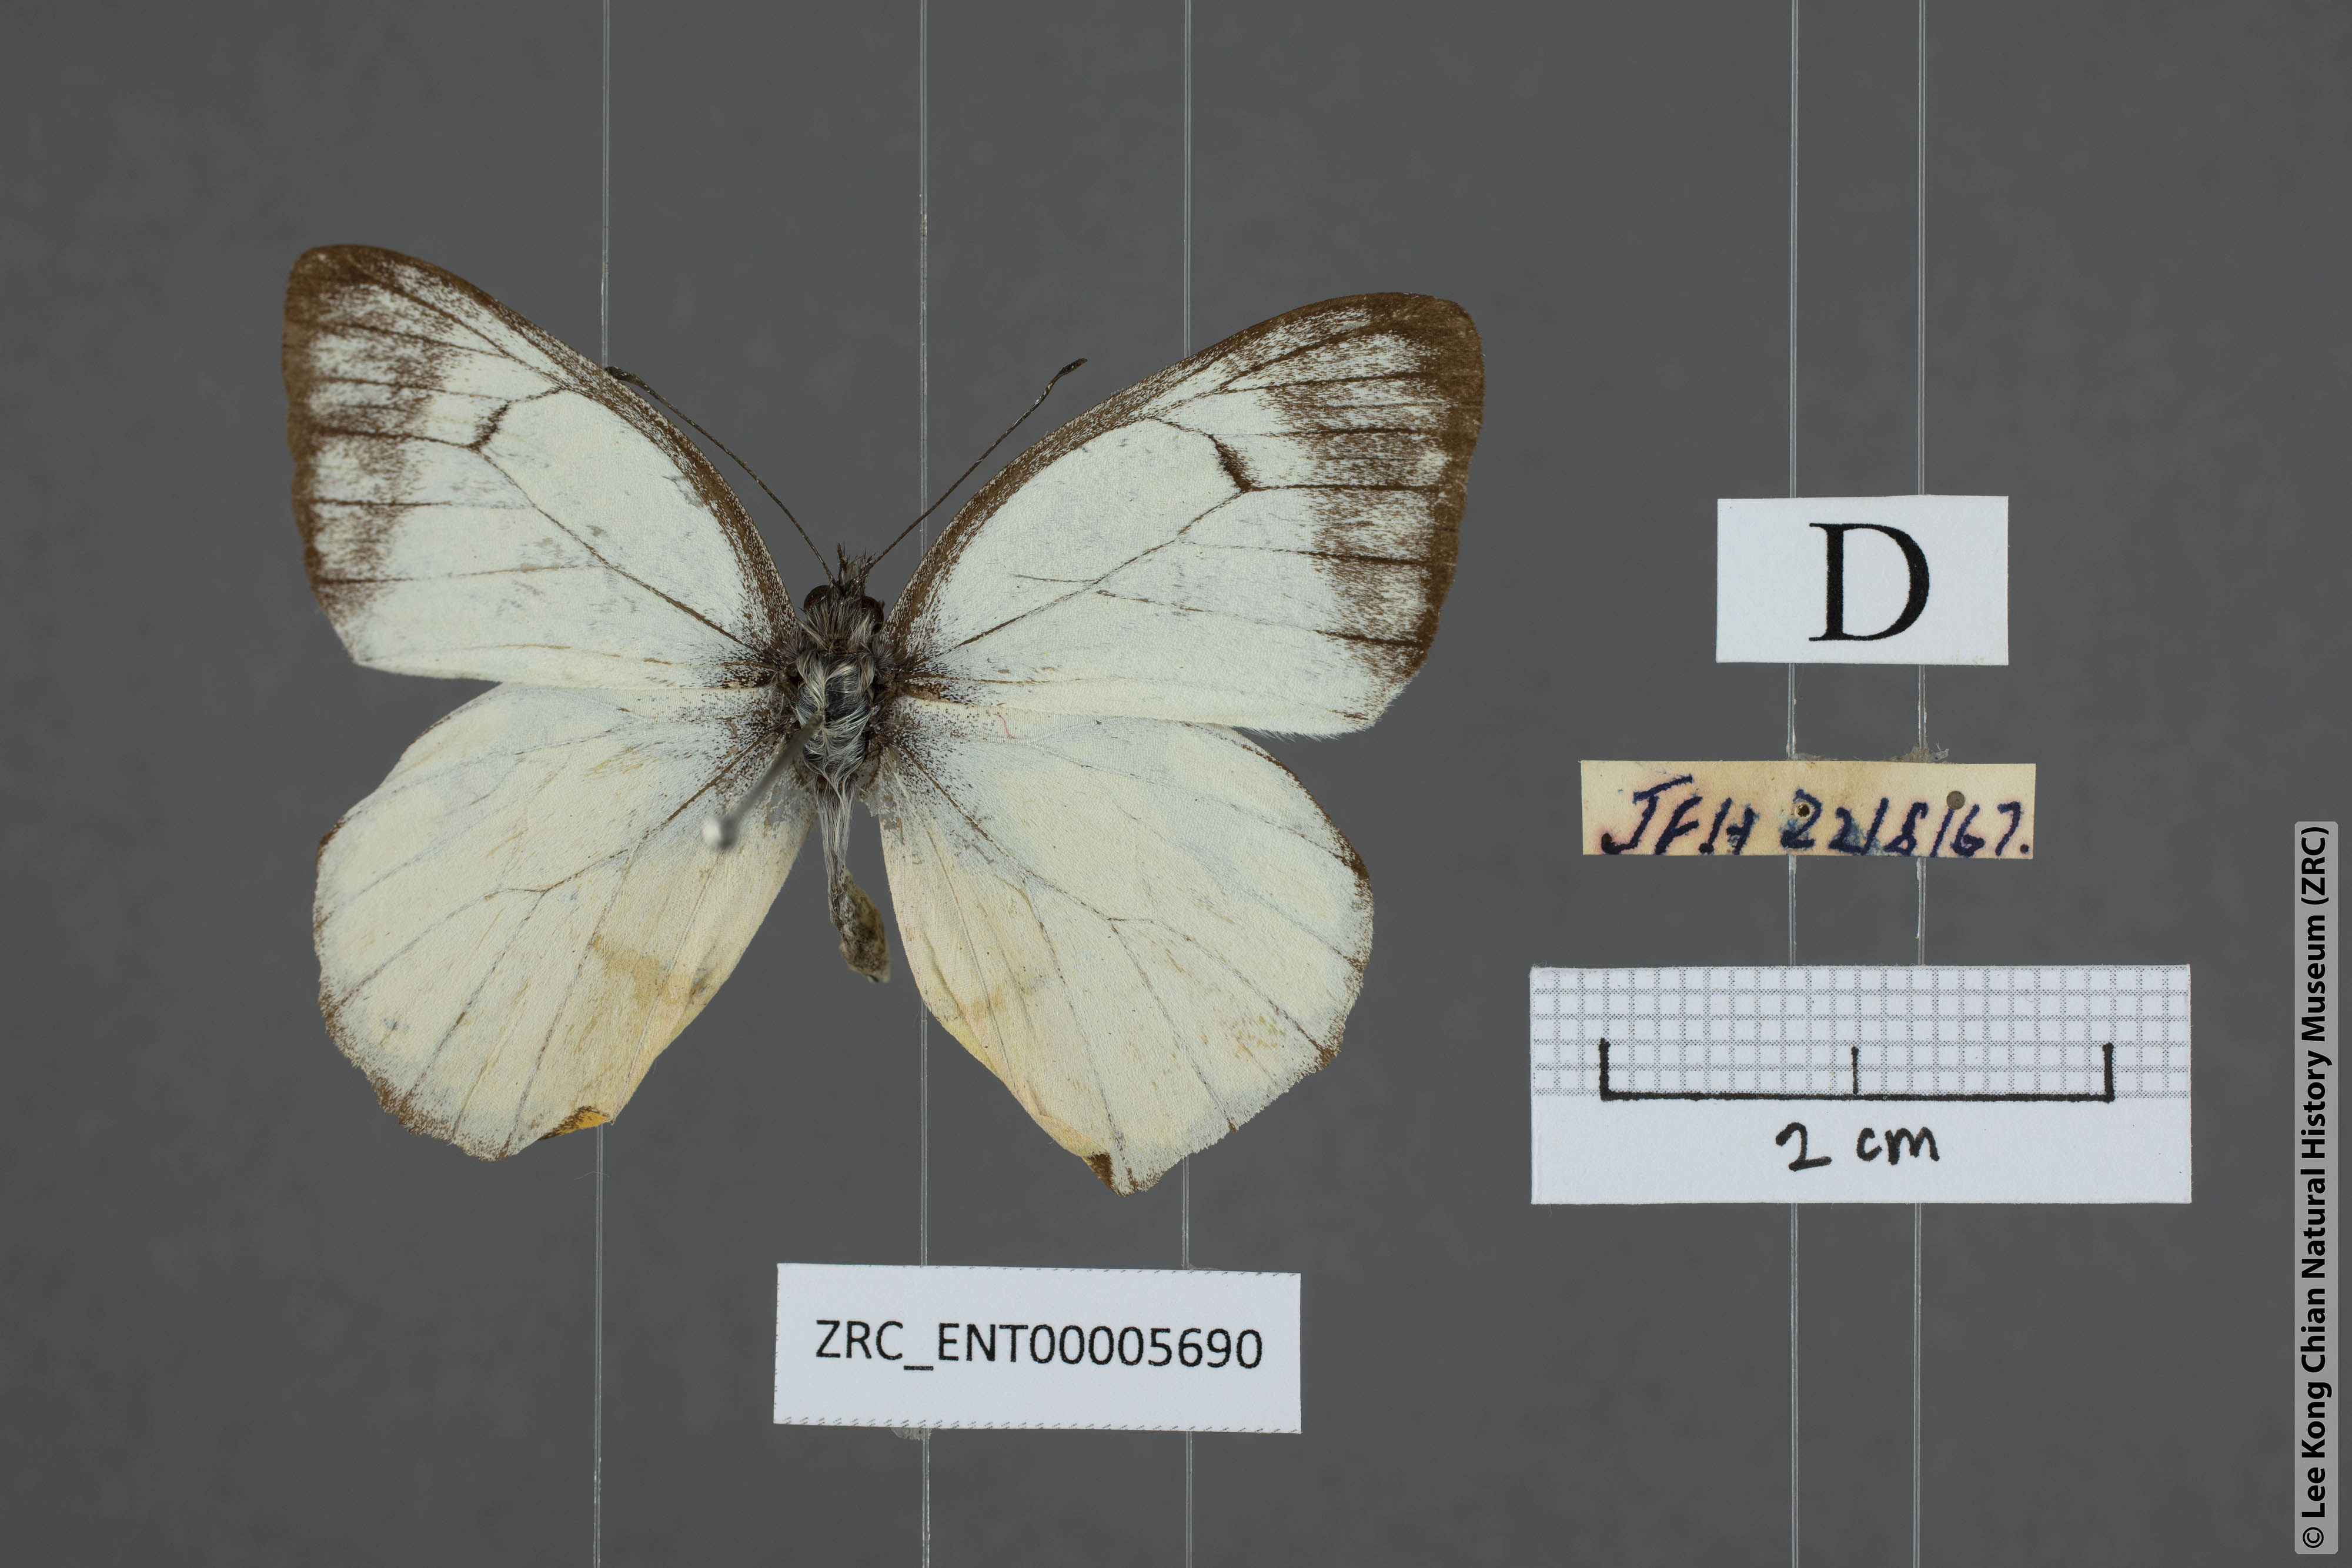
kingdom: Animalia
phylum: Arthropoda
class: Insecta
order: Lepidoptera
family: Pieridae
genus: Delias
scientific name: Delias georgina
